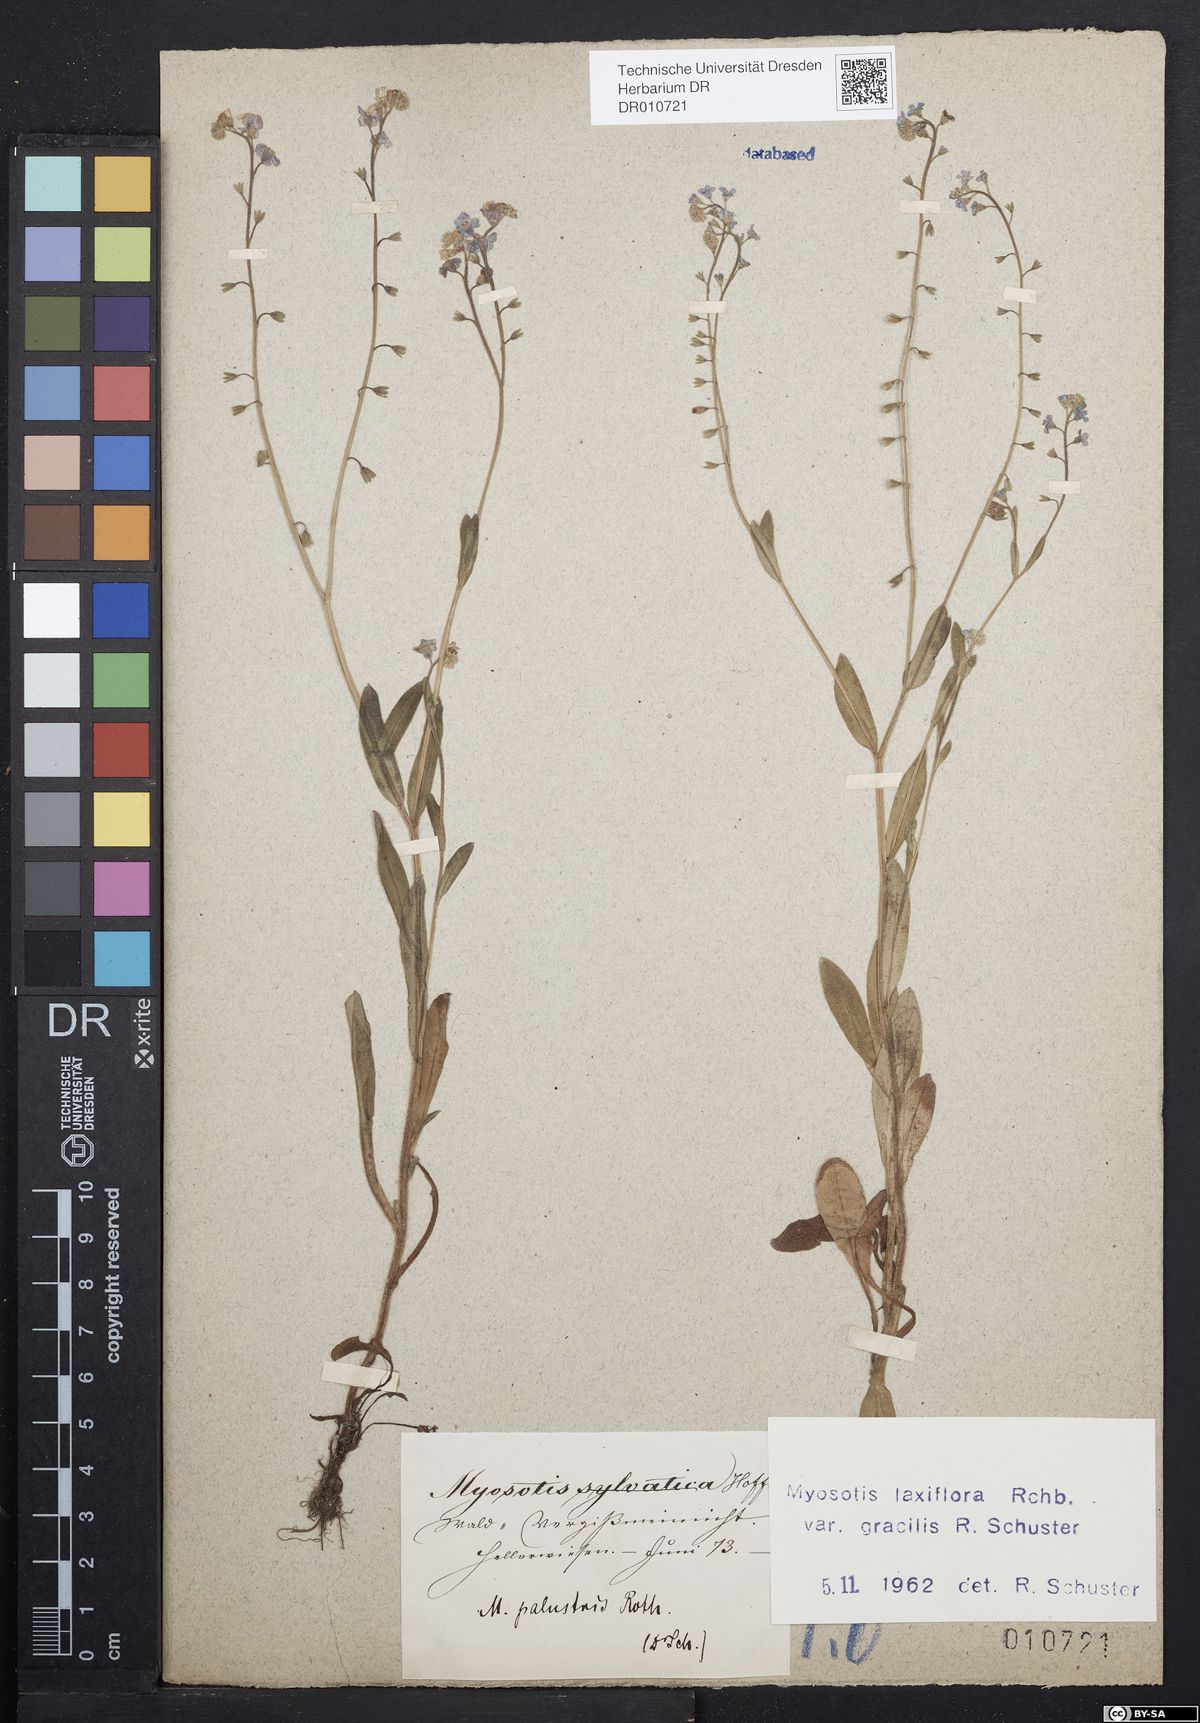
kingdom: Plantae
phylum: Tracheophyta
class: Magnoliopsida
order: Boraginales
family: Boraginaceae
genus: Myosotis
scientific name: Myosotis scorpioides
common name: Water forget-me-not
